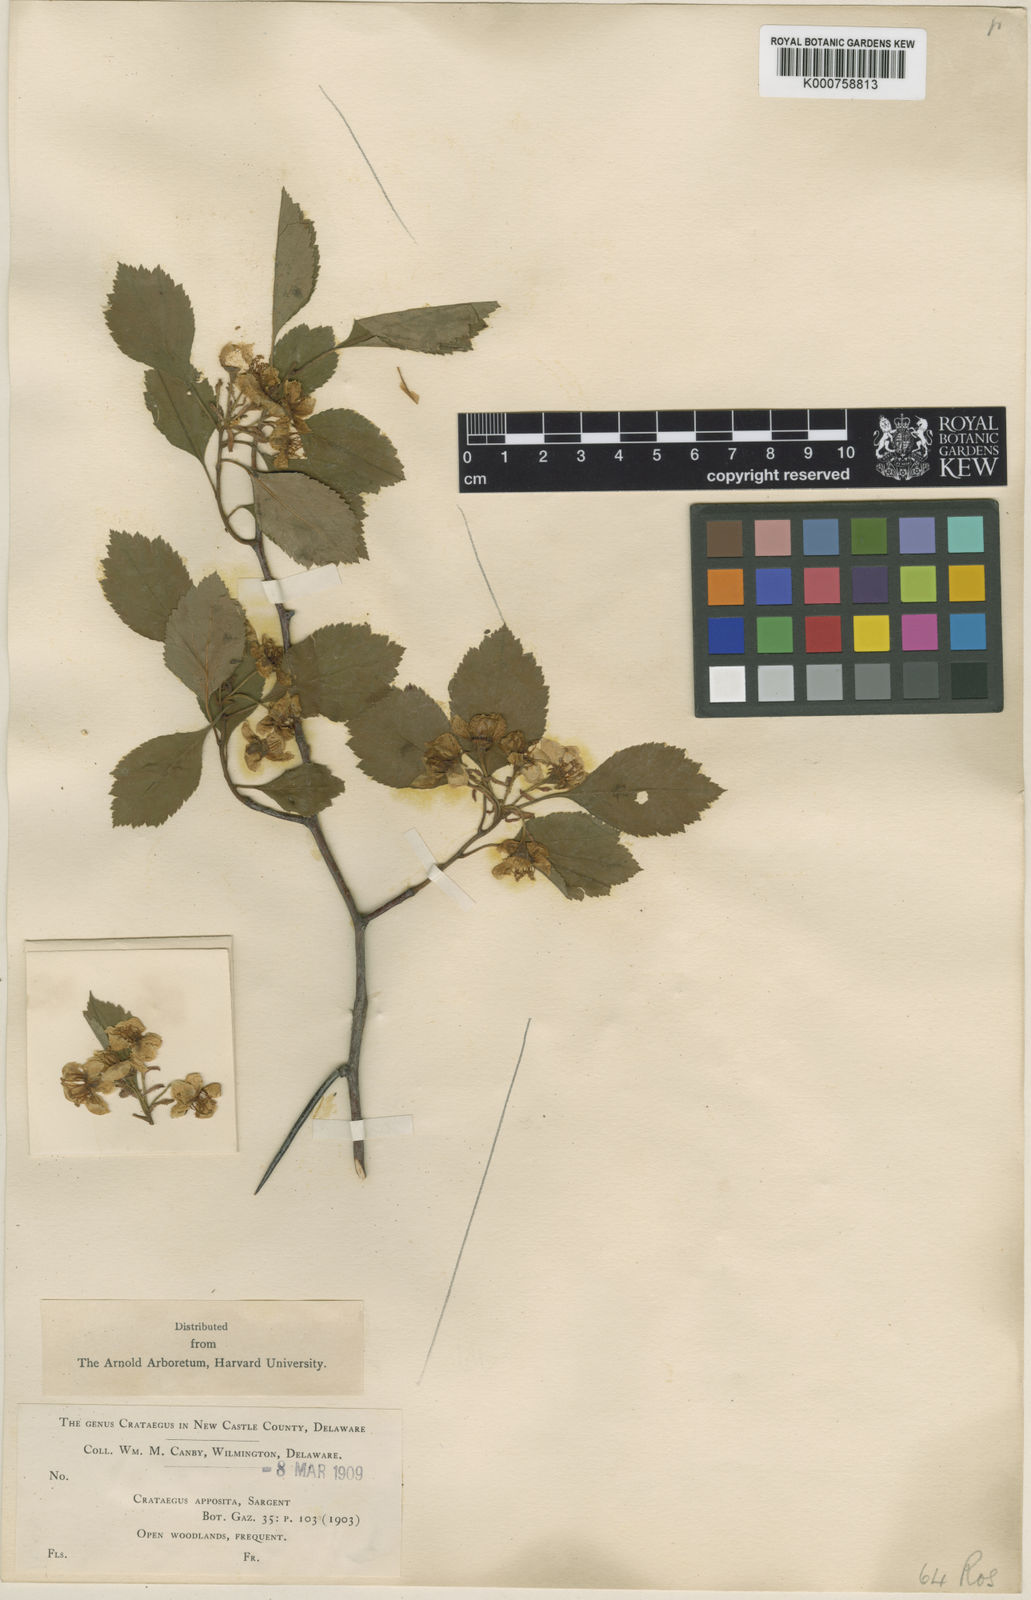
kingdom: Plantae
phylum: Tracheophyta
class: Magnoliopsida
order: Rosales
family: Rosaceae
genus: Crataegus
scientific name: Crataegus intricata
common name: Biltmore hawthorn
